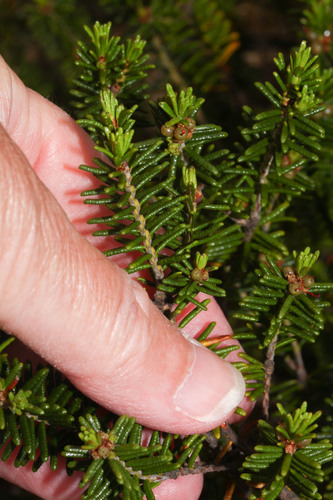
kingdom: Plantae
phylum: Tracheophyta
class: Magnoliopsida
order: Ericales
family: Ericaceae
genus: Corema
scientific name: Corema album
